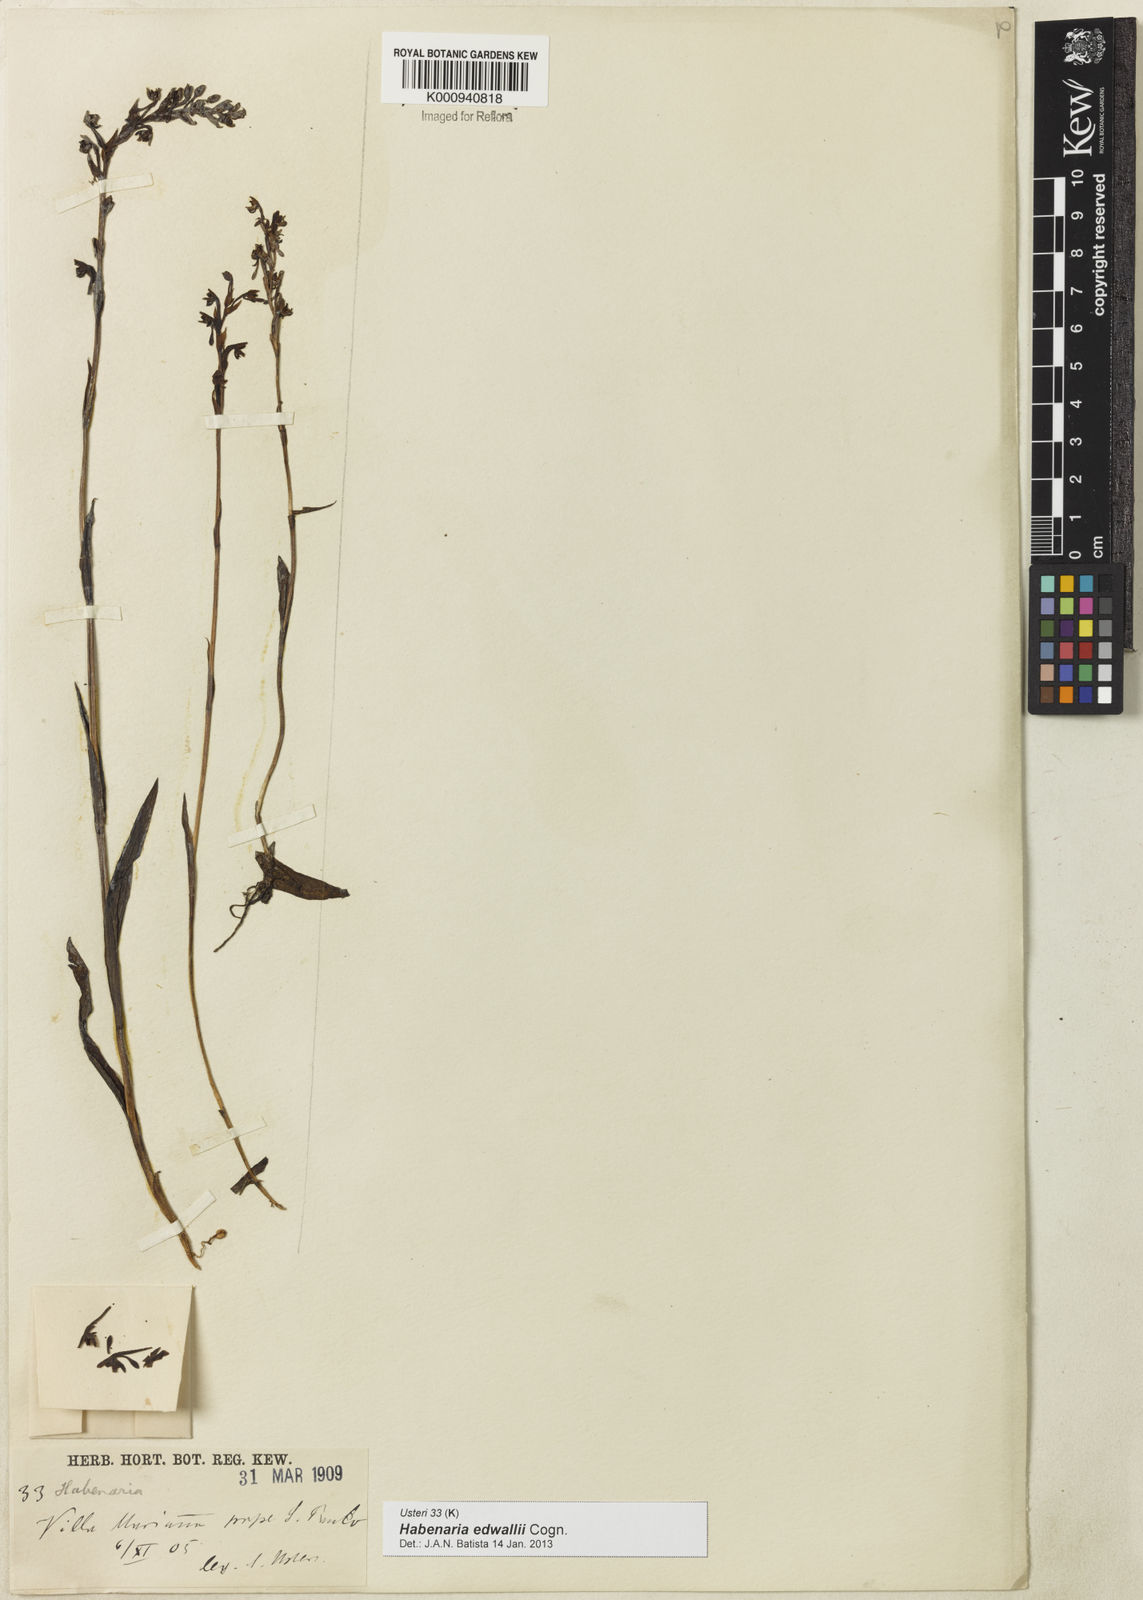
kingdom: Plantae
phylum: Tracheophyta
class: Liliopsida
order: Asparagales
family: Orchidaceae
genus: Habenaria
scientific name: Habenaria edwallii
